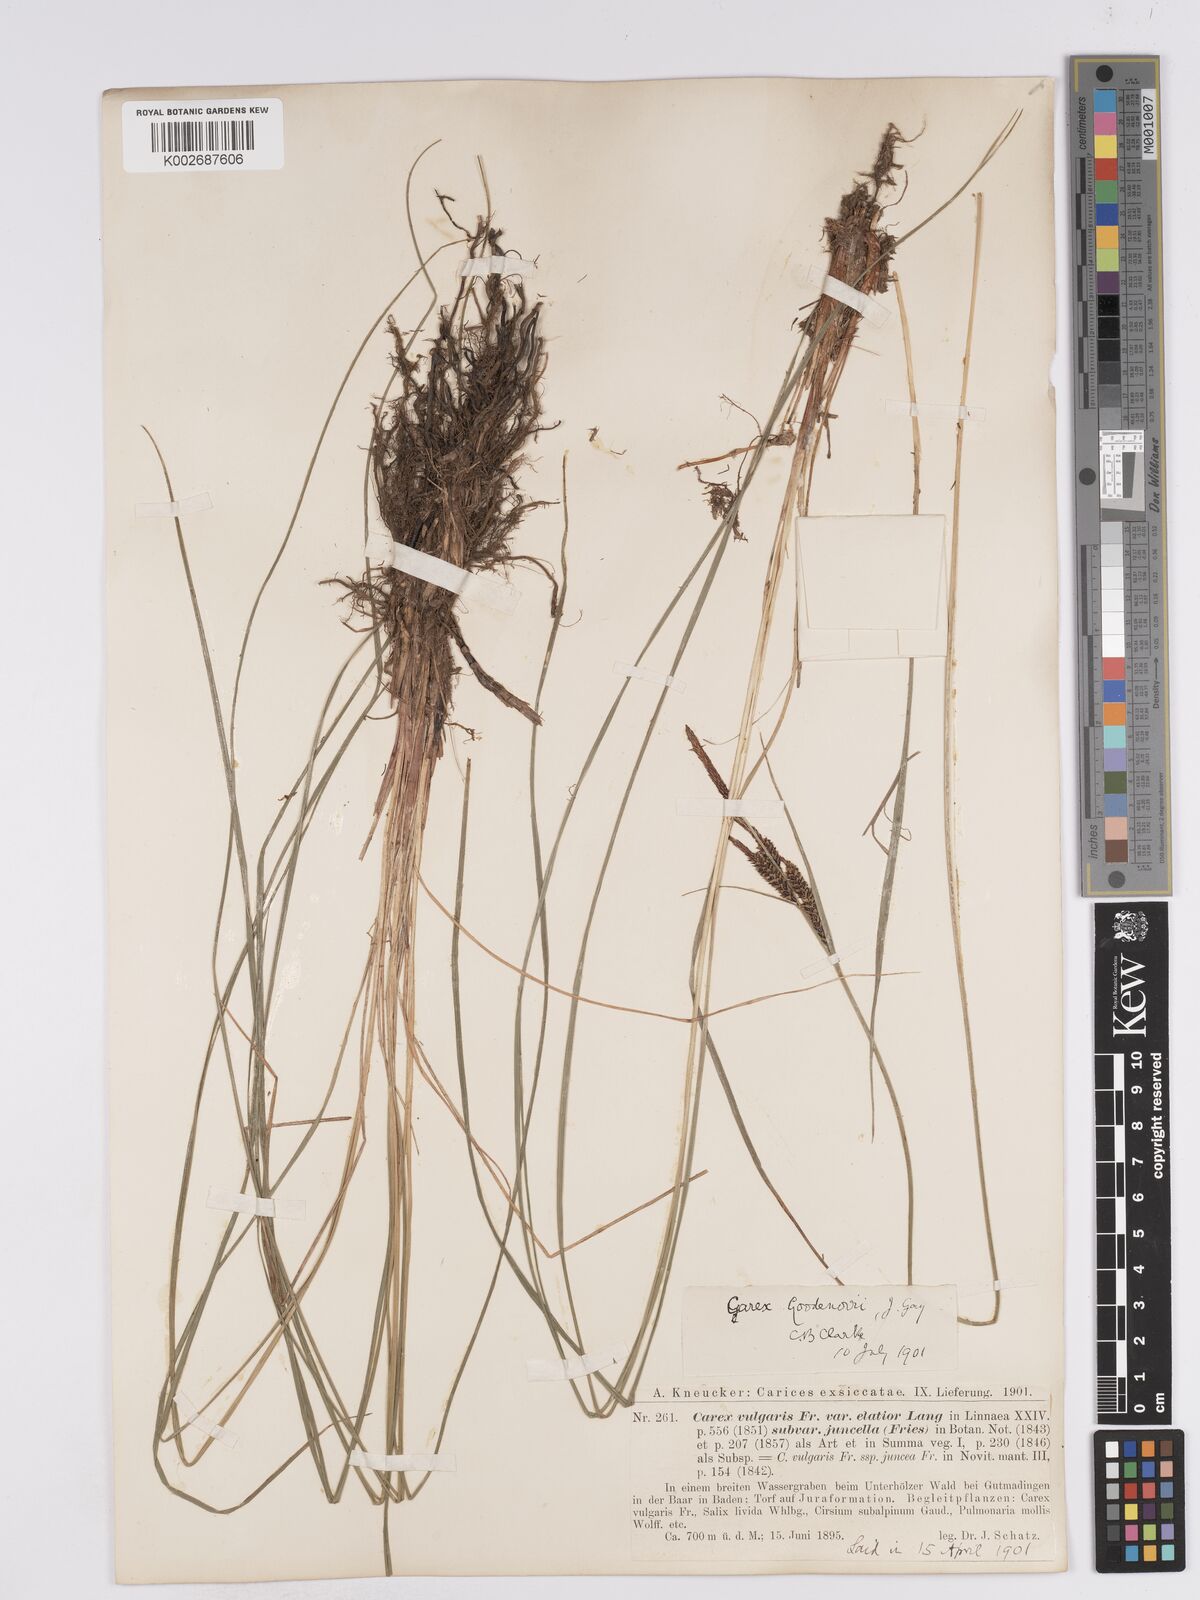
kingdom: Plantae
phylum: Tracheophyta
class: Liliopsida
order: Poales
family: Cyperaceae
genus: Carex
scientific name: Carex
